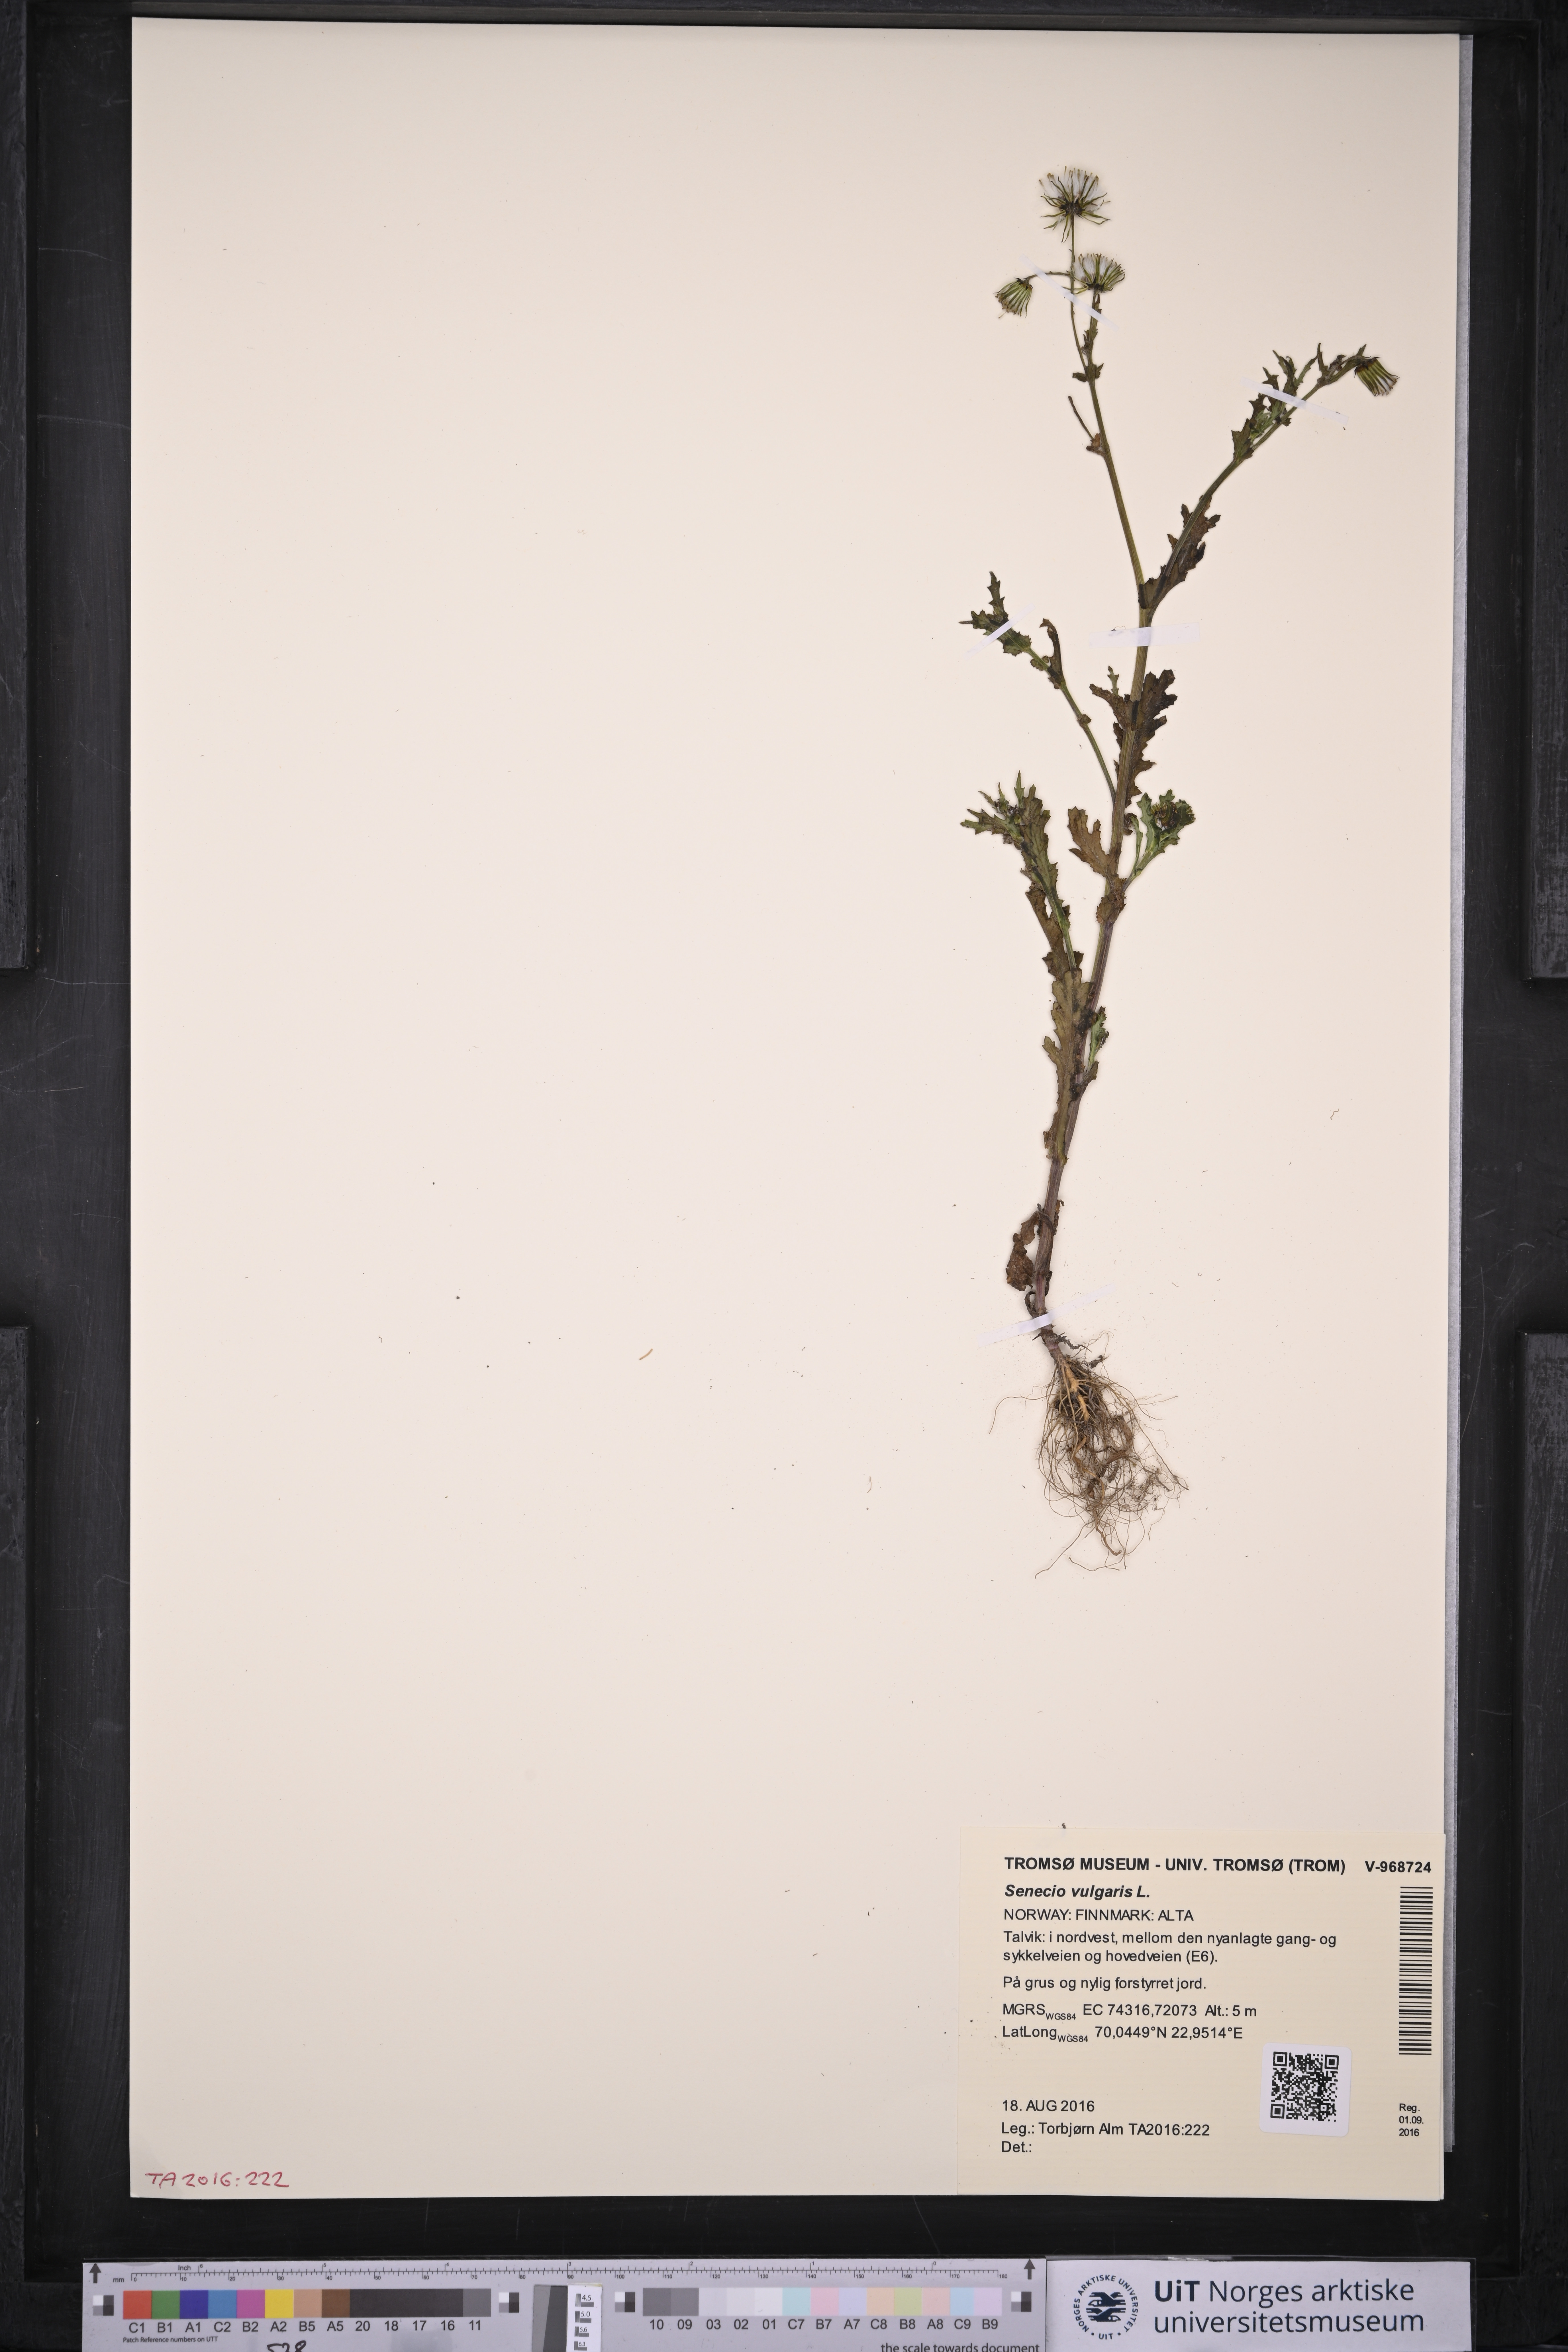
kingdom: Plantae
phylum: Tracheophyta
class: Magnoliopsida
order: Asterales
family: Asteraceae
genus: Senecio
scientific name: Senecio vulgaris
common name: Old-man-in-the-spring
